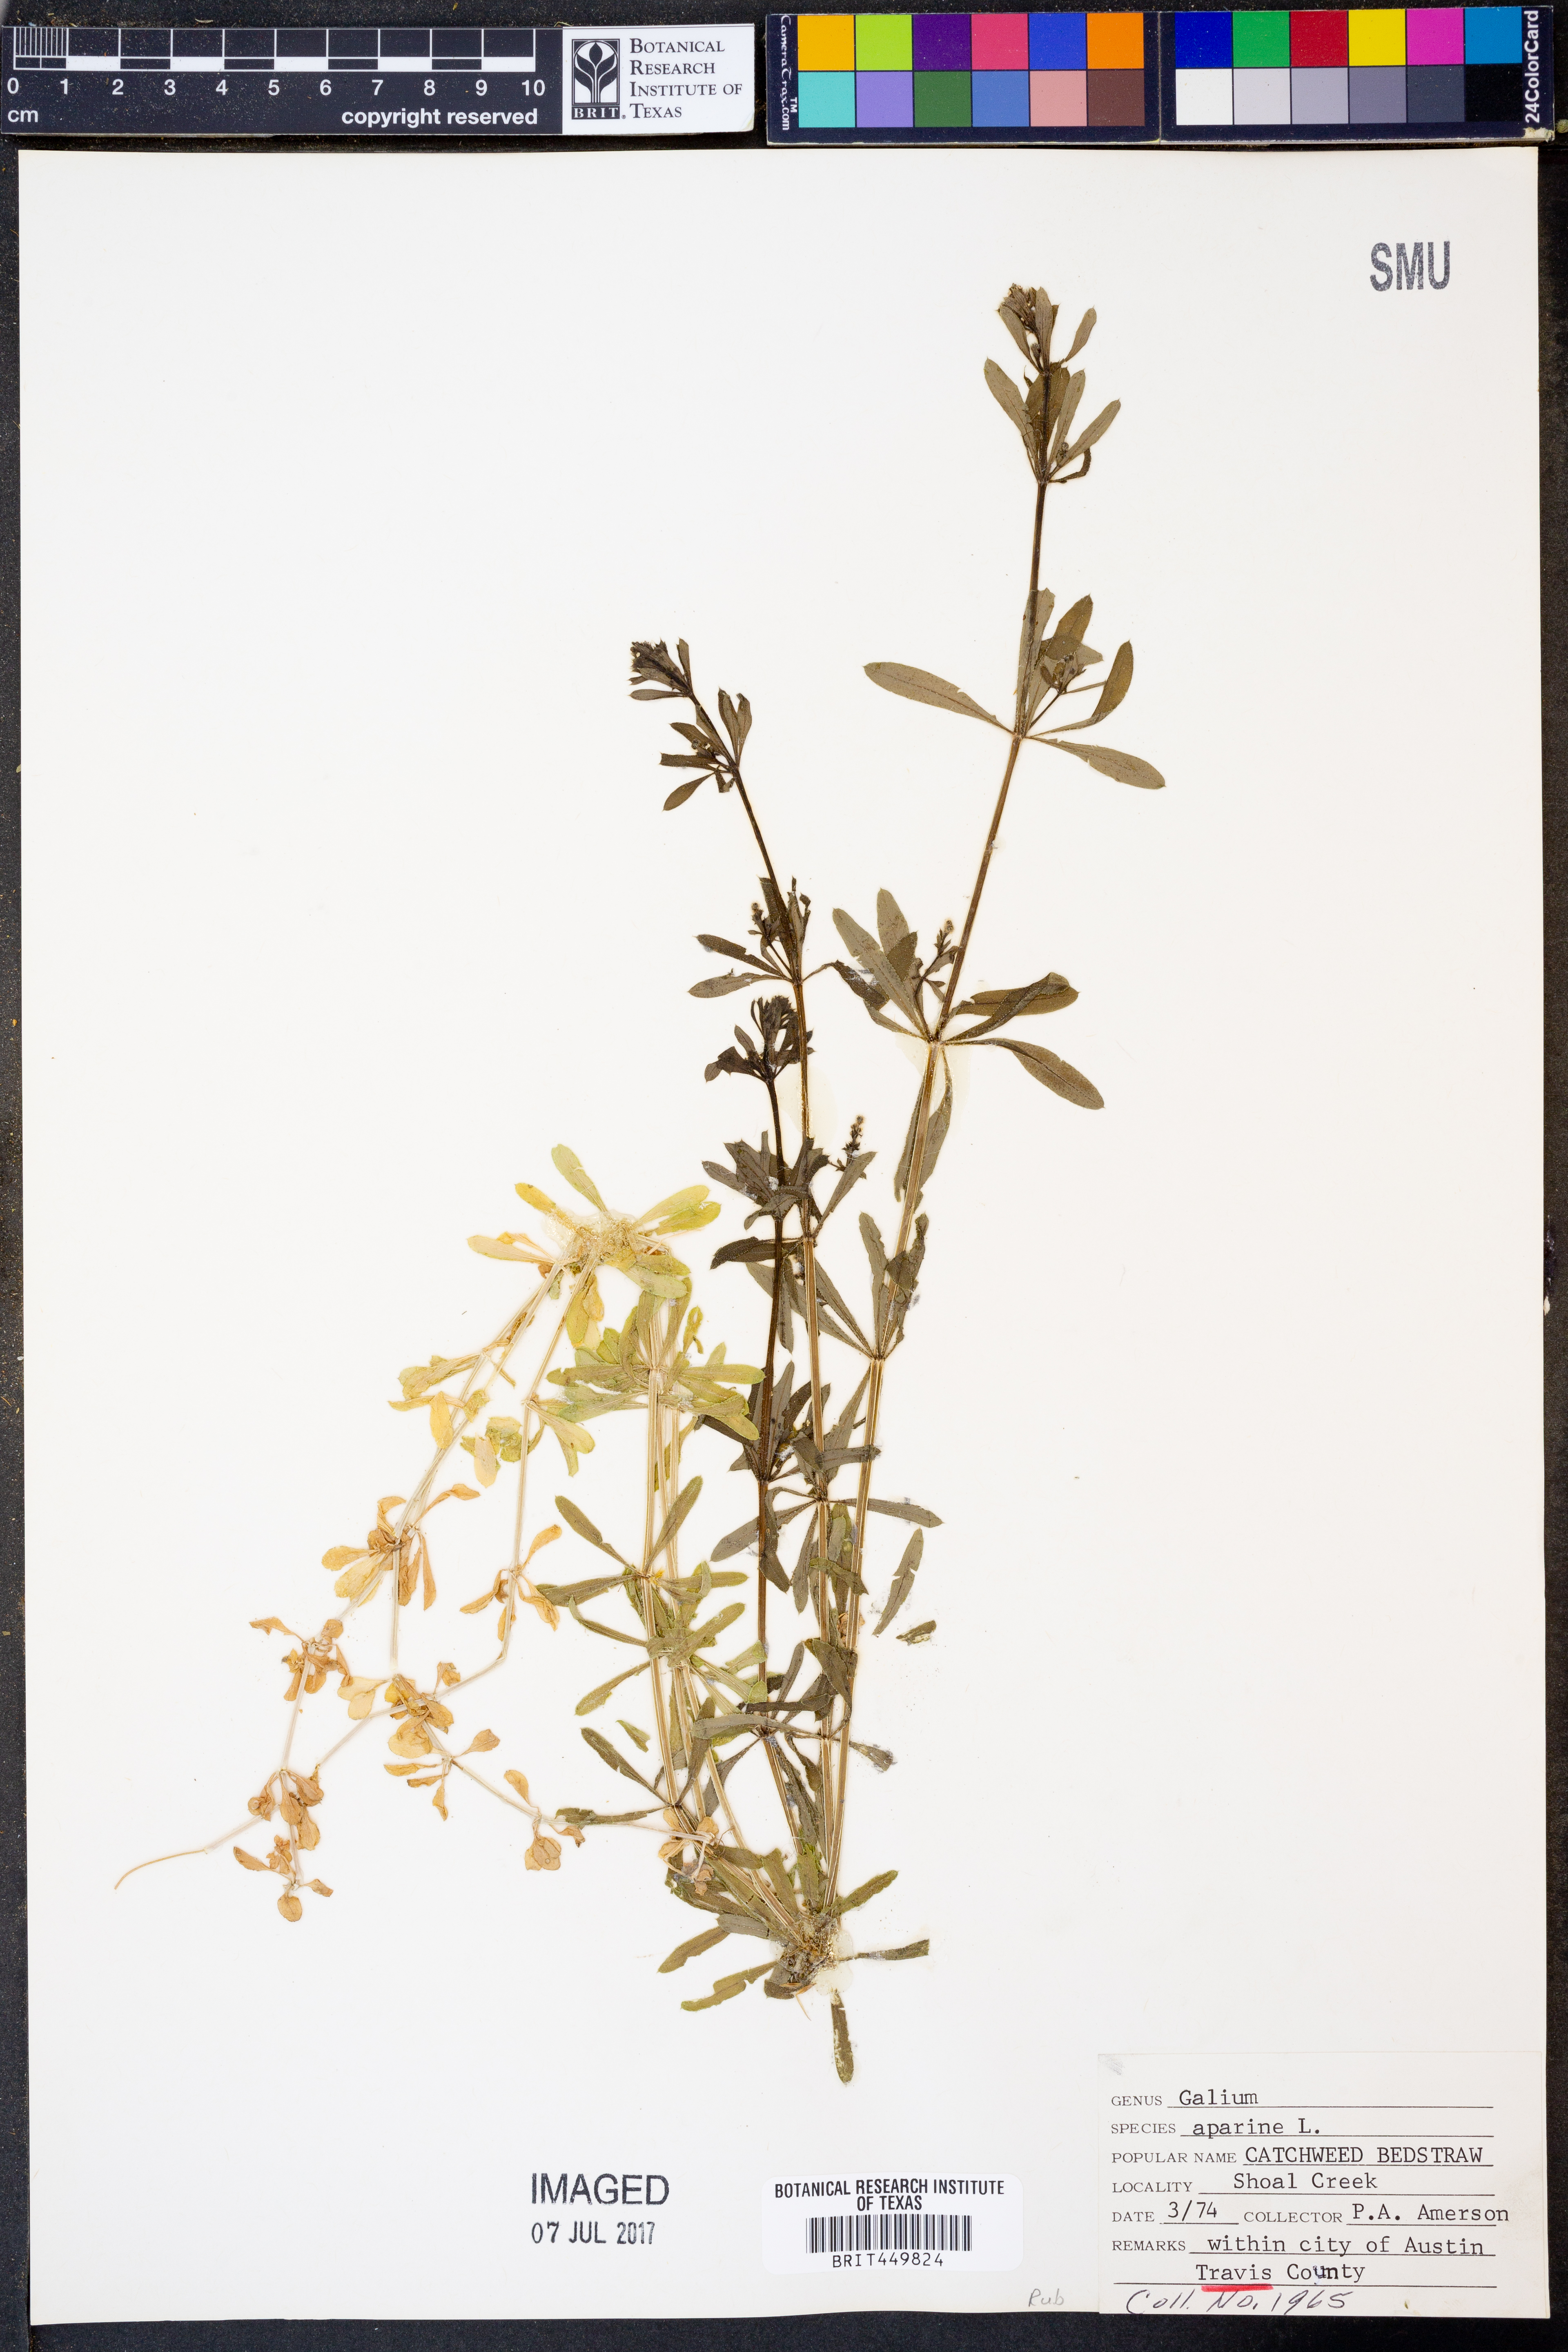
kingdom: Plantae
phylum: Tracheophyta
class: Magnoliopsida
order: Gentianales
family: Rubiaceae
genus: Galium
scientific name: Galium aparine
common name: Cleavers
